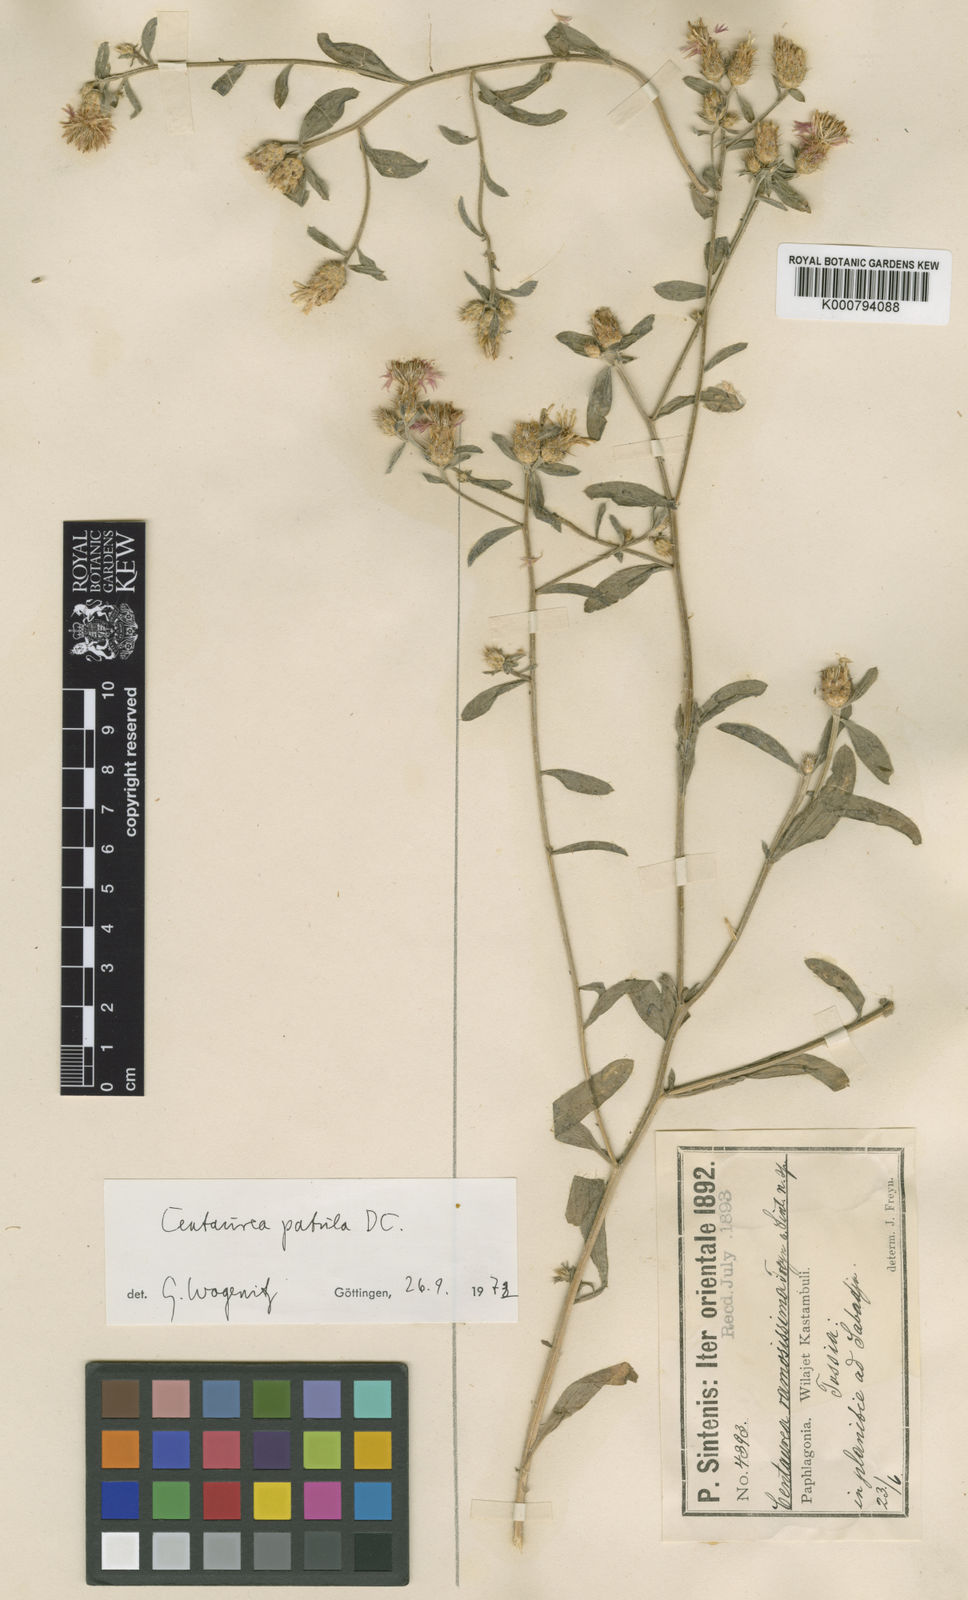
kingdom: Plantae
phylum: Tracheophyta
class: Magnoliopsida
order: Asterales
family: Asteraceae
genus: Centaurea
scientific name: Centaurea
